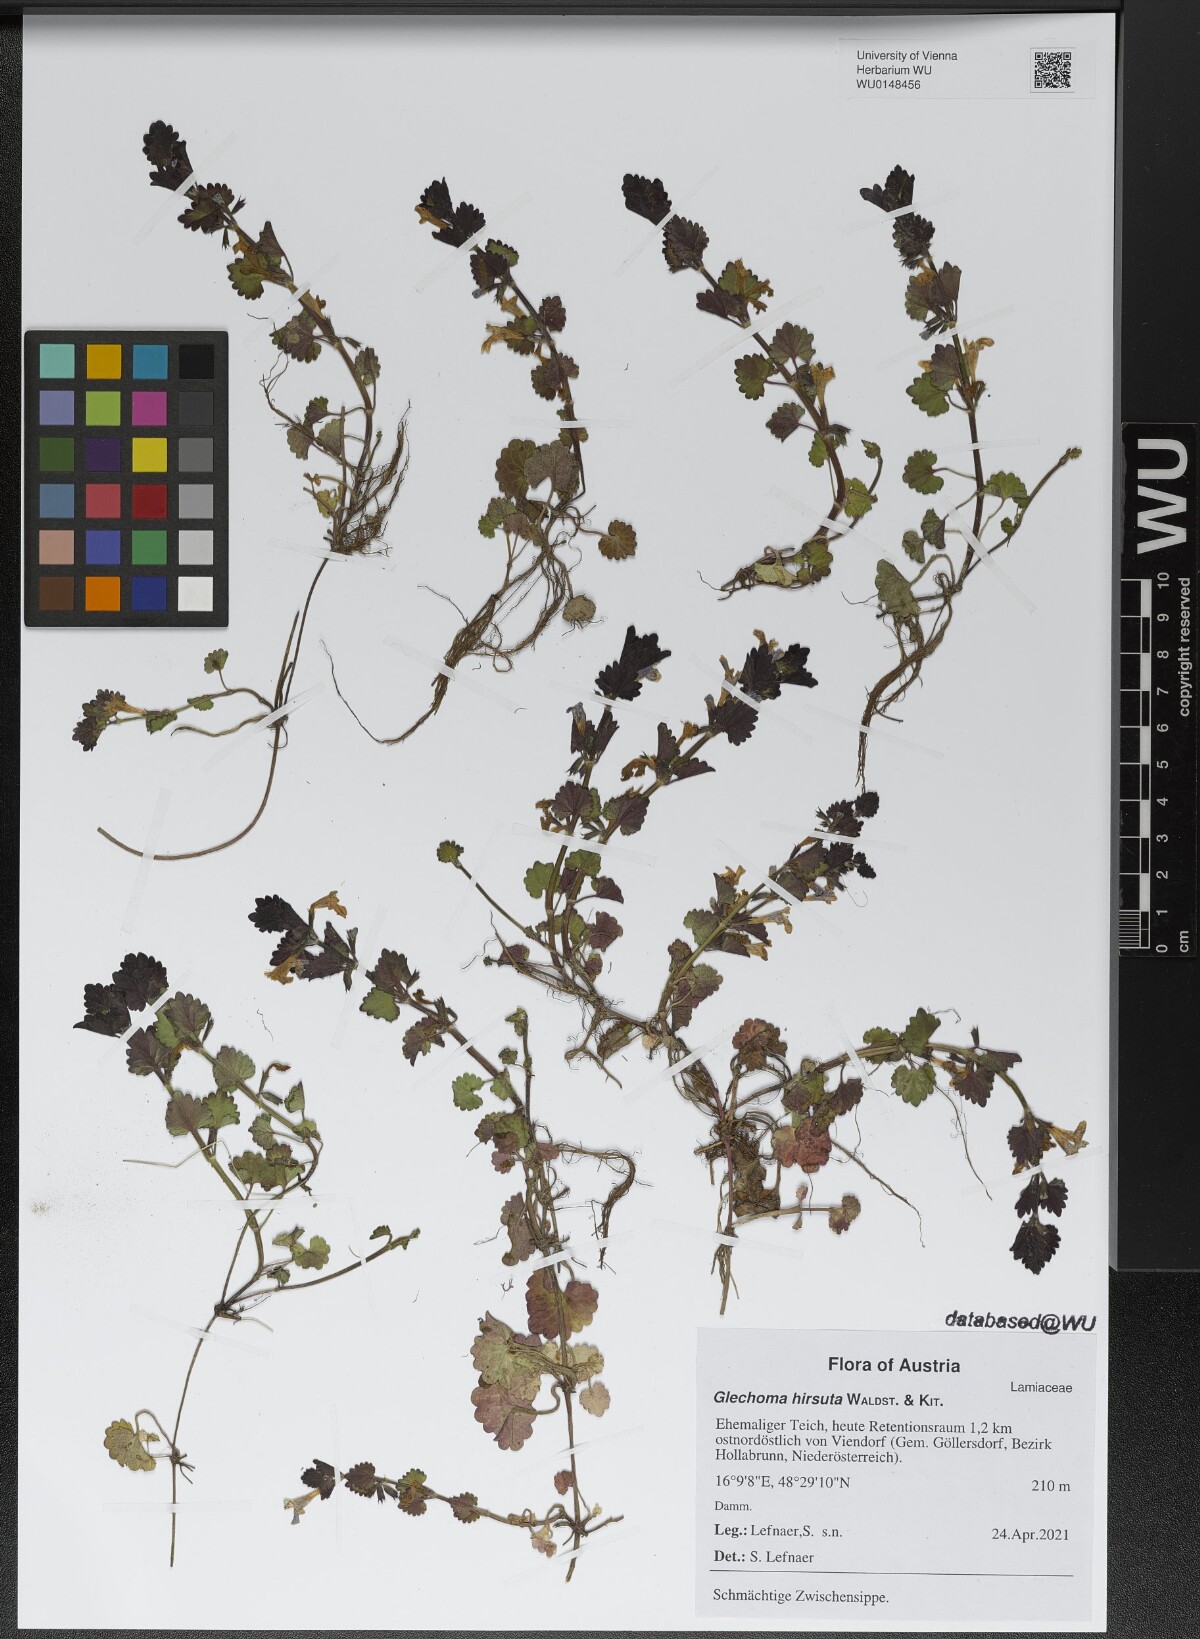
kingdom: Plantae
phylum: Tracheophyta
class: Magnoliopsida
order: Lamiales
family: Lamiaceae
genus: Glechoma
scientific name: Glechoma hirsuta
